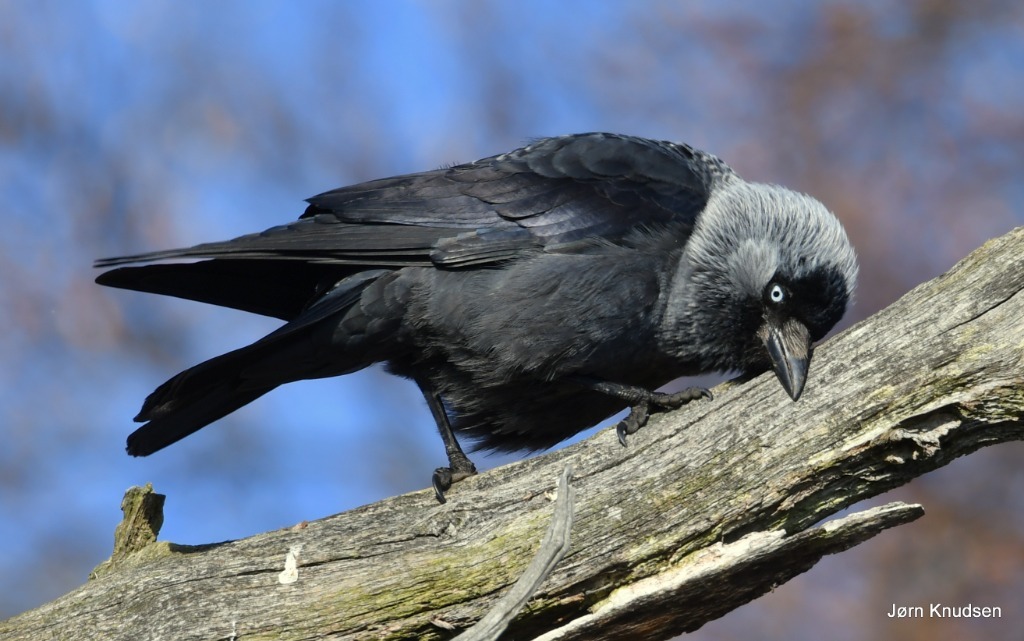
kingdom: Animalia
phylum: Chordata
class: Aves
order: Passeriformes
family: Corvidae
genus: Coloeus
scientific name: Coloeus monedula
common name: Allike
